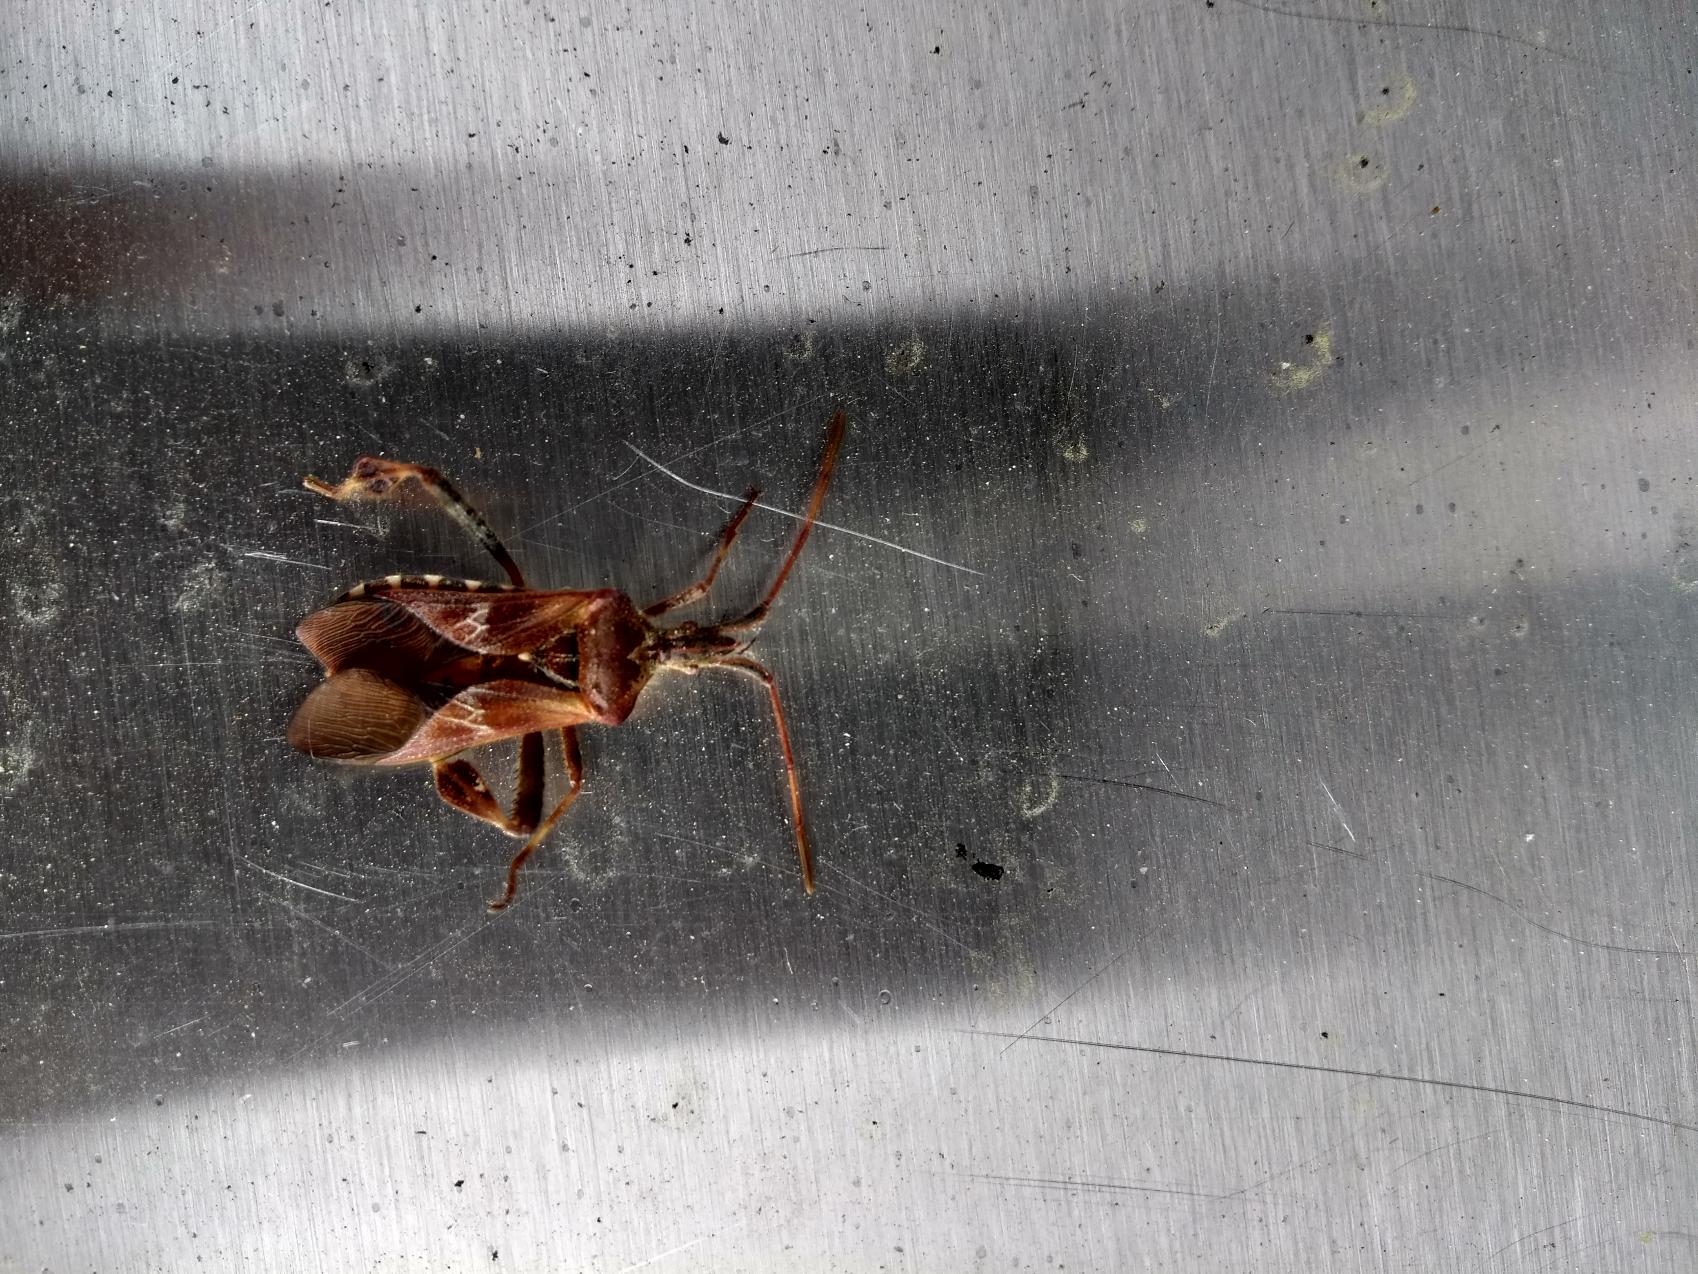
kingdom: Animalia
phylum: Arthropoda
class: Insecta
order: Hemiptera
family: Coreidae
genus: Leptoglossus
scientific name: Leptoglossus occidentalis
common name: Amerikansk fyrretæge
